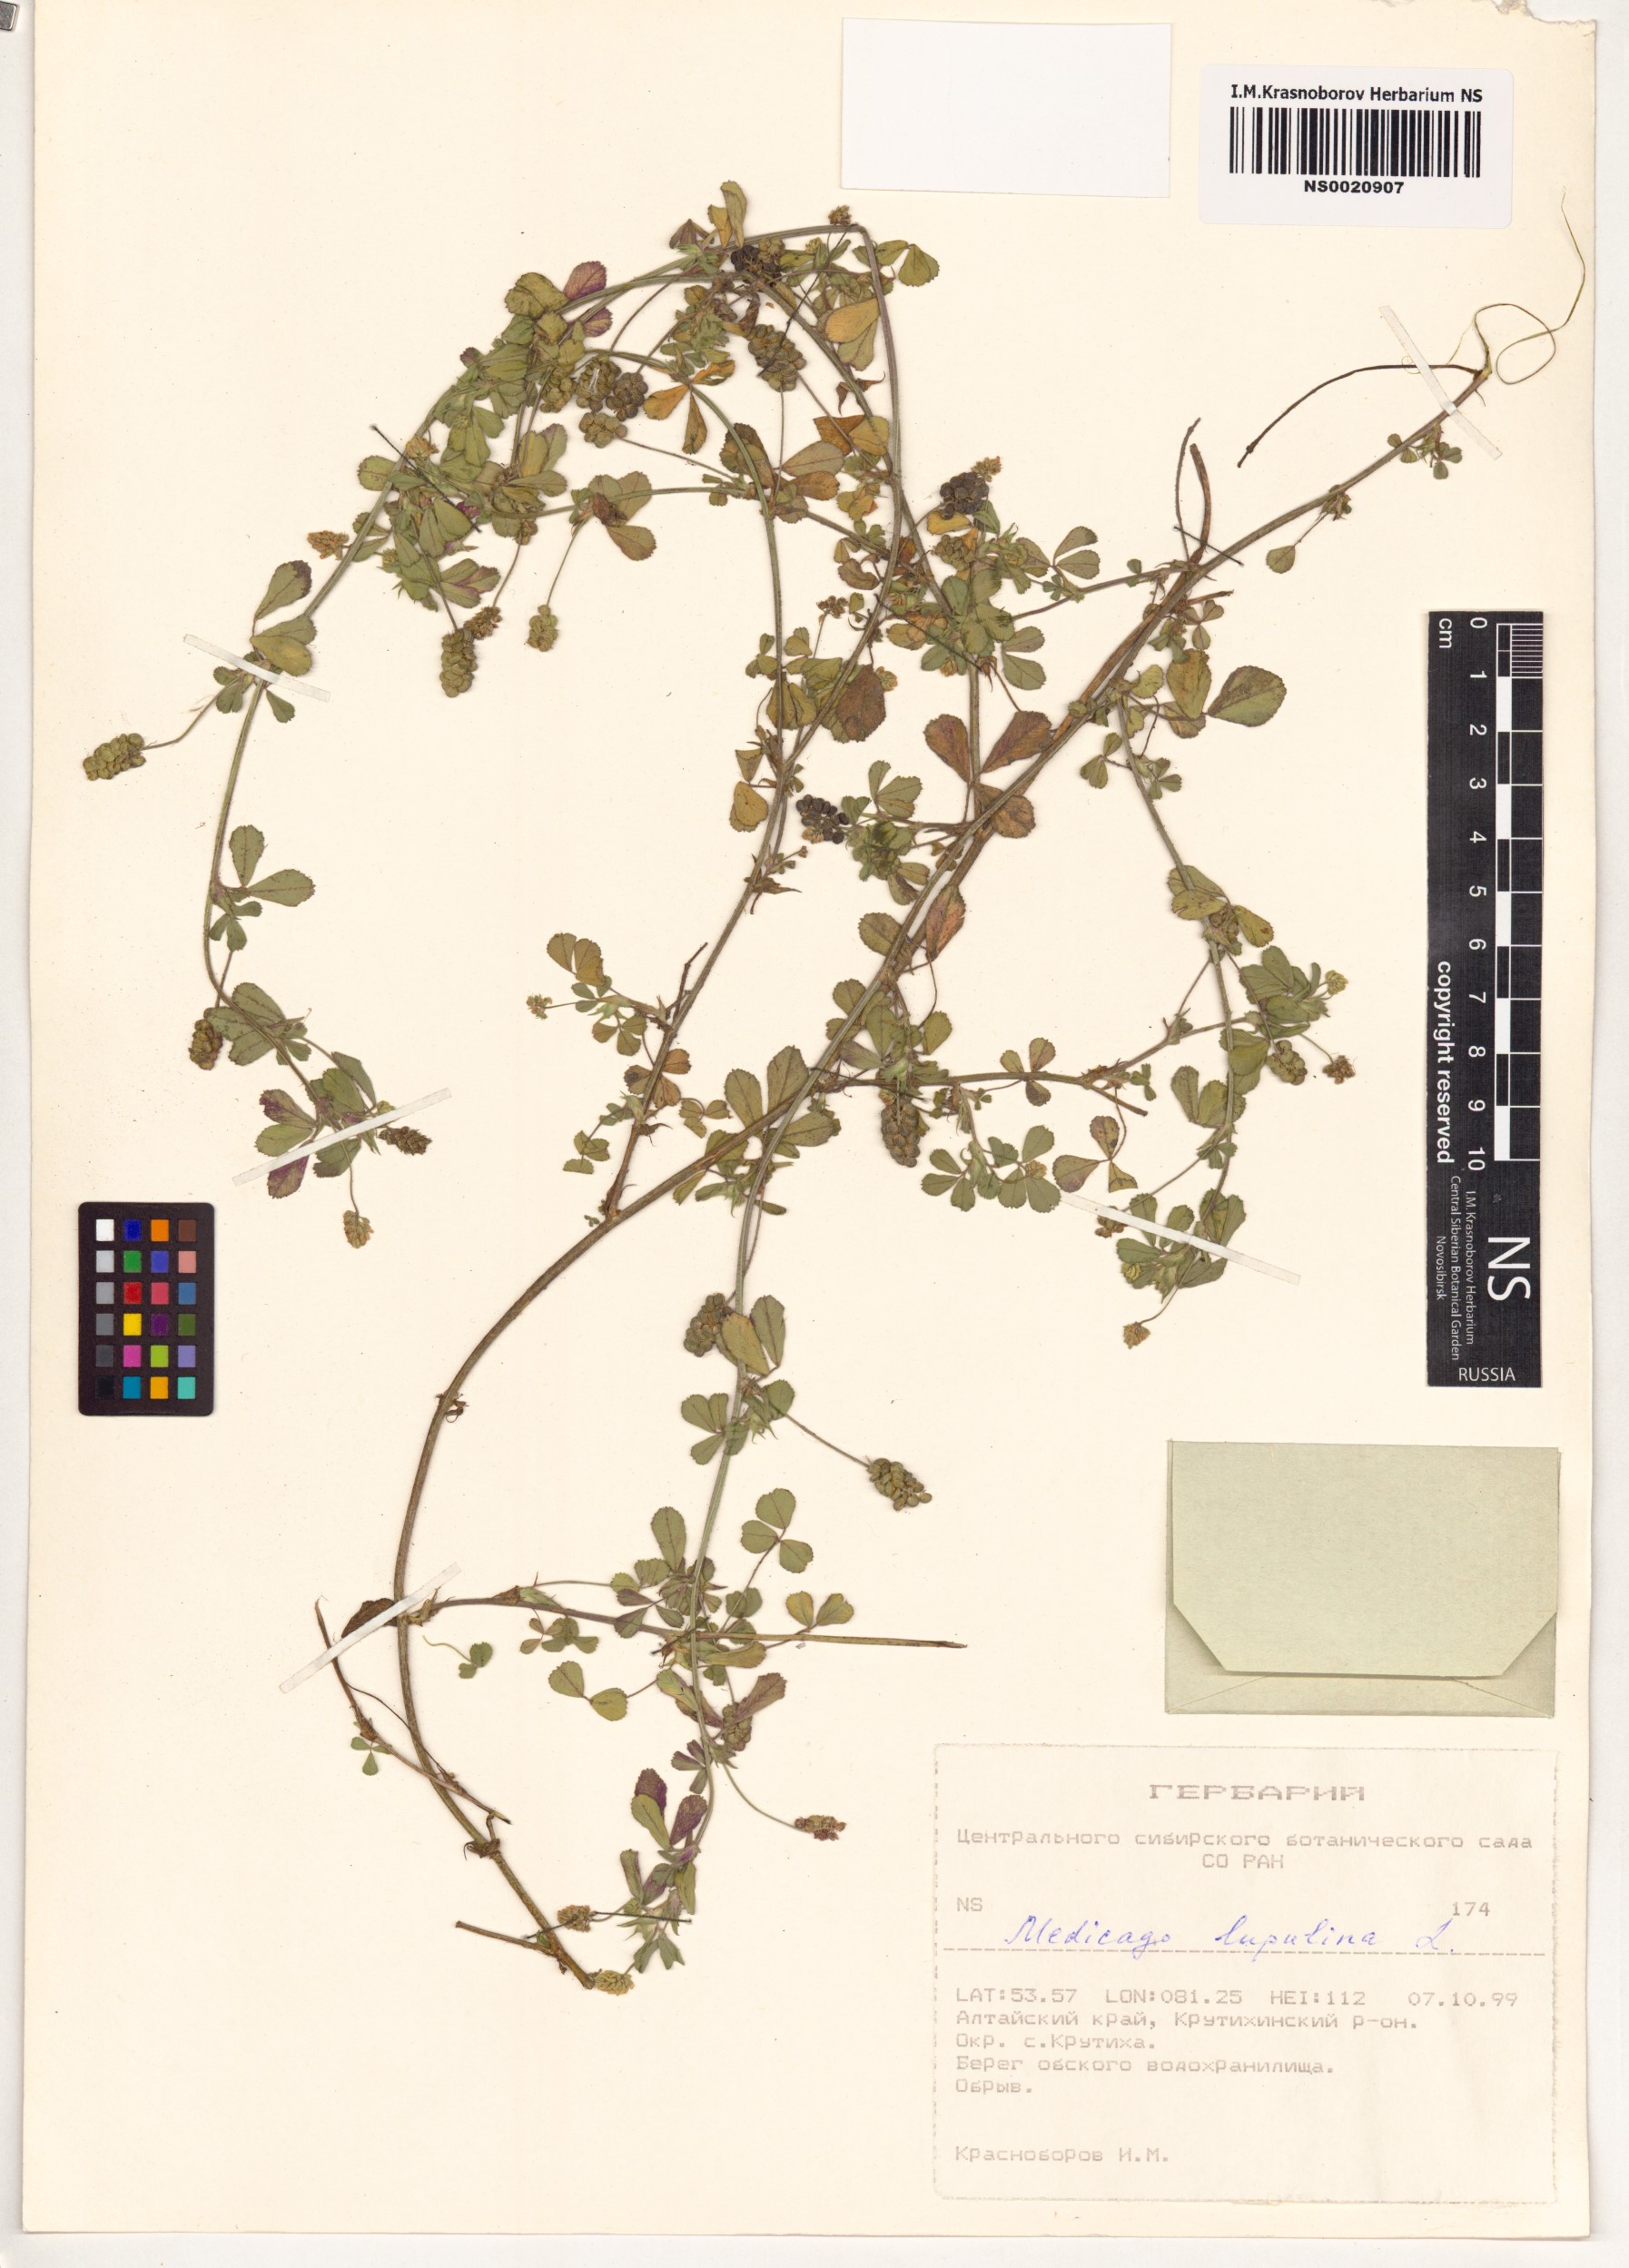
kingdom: Plantae
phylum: Tracheophyta
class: Magnoliopsida
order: Fabales
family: Fabaceae
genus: Medicago
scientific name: Medicago lupulina
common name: Black medick
